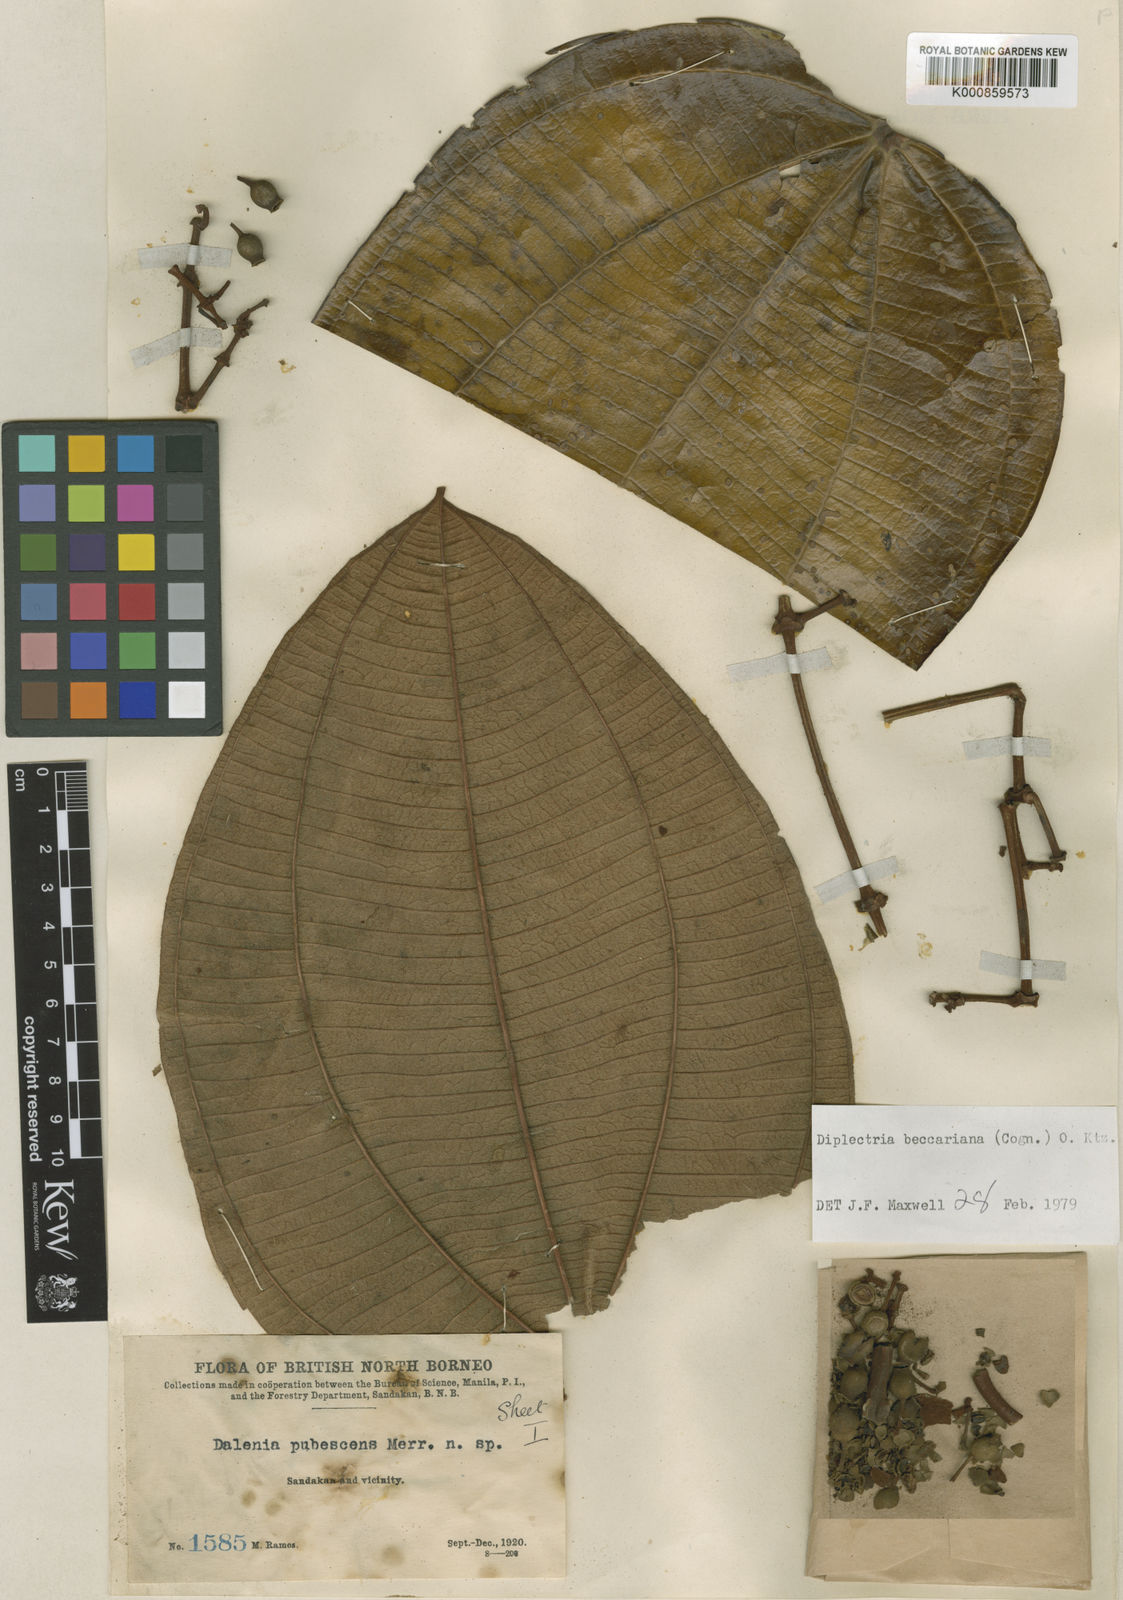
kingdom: Plantae
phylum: Tracheophyta
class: Magnoliopsida
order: Myrtales
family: Melastomataceae
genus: Dalenia
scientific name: Dalenia beccariana
